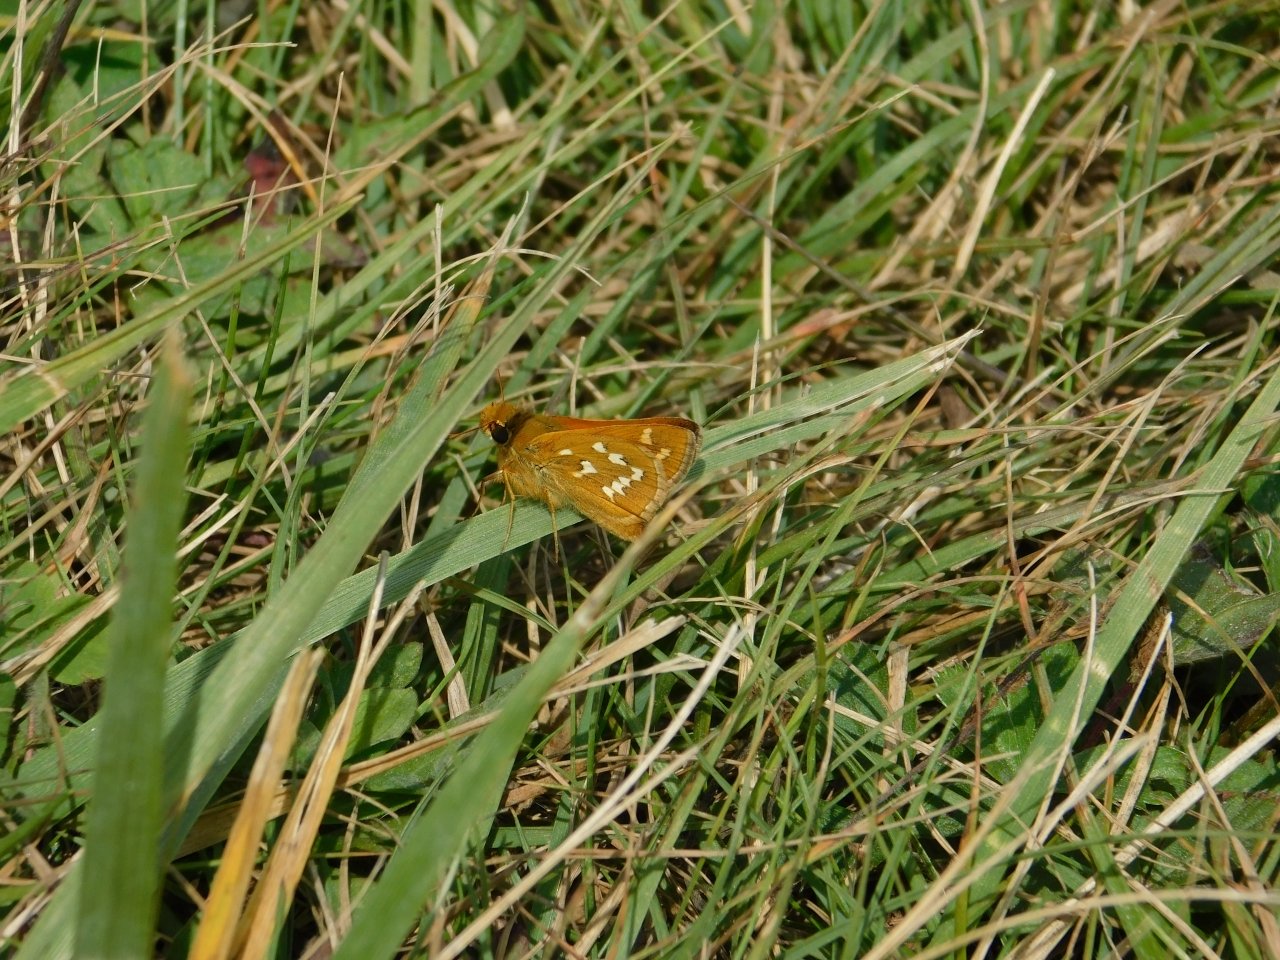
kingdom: Animalia
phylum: Arthropoda
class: Insecta
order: Lepidoptera
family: Hesperiidae
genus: Hesperia
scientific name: Hesperia comma
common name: Common Branded Skipper
